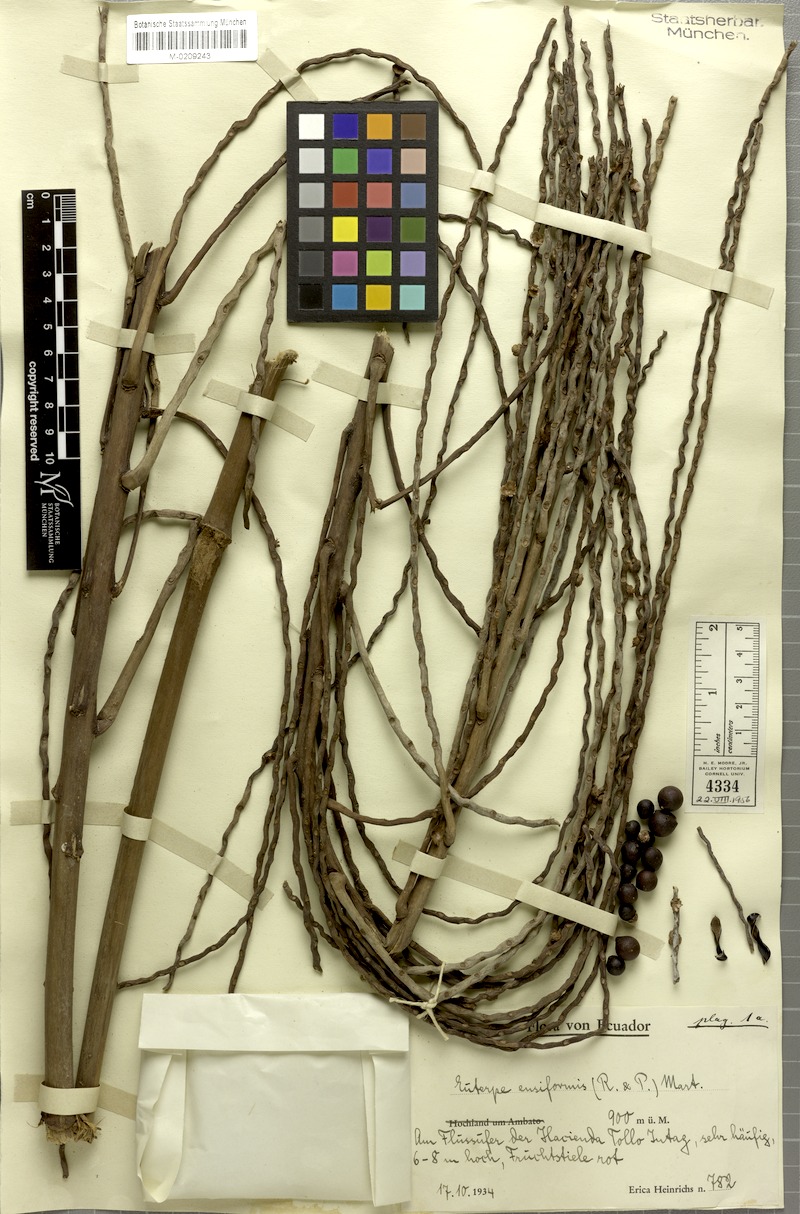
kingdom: Plantae
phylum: Tracheophyta
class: Liliopsida
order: Arecales
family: Arecaceae
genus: Prestoea
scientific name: Prestoea ensiformis
